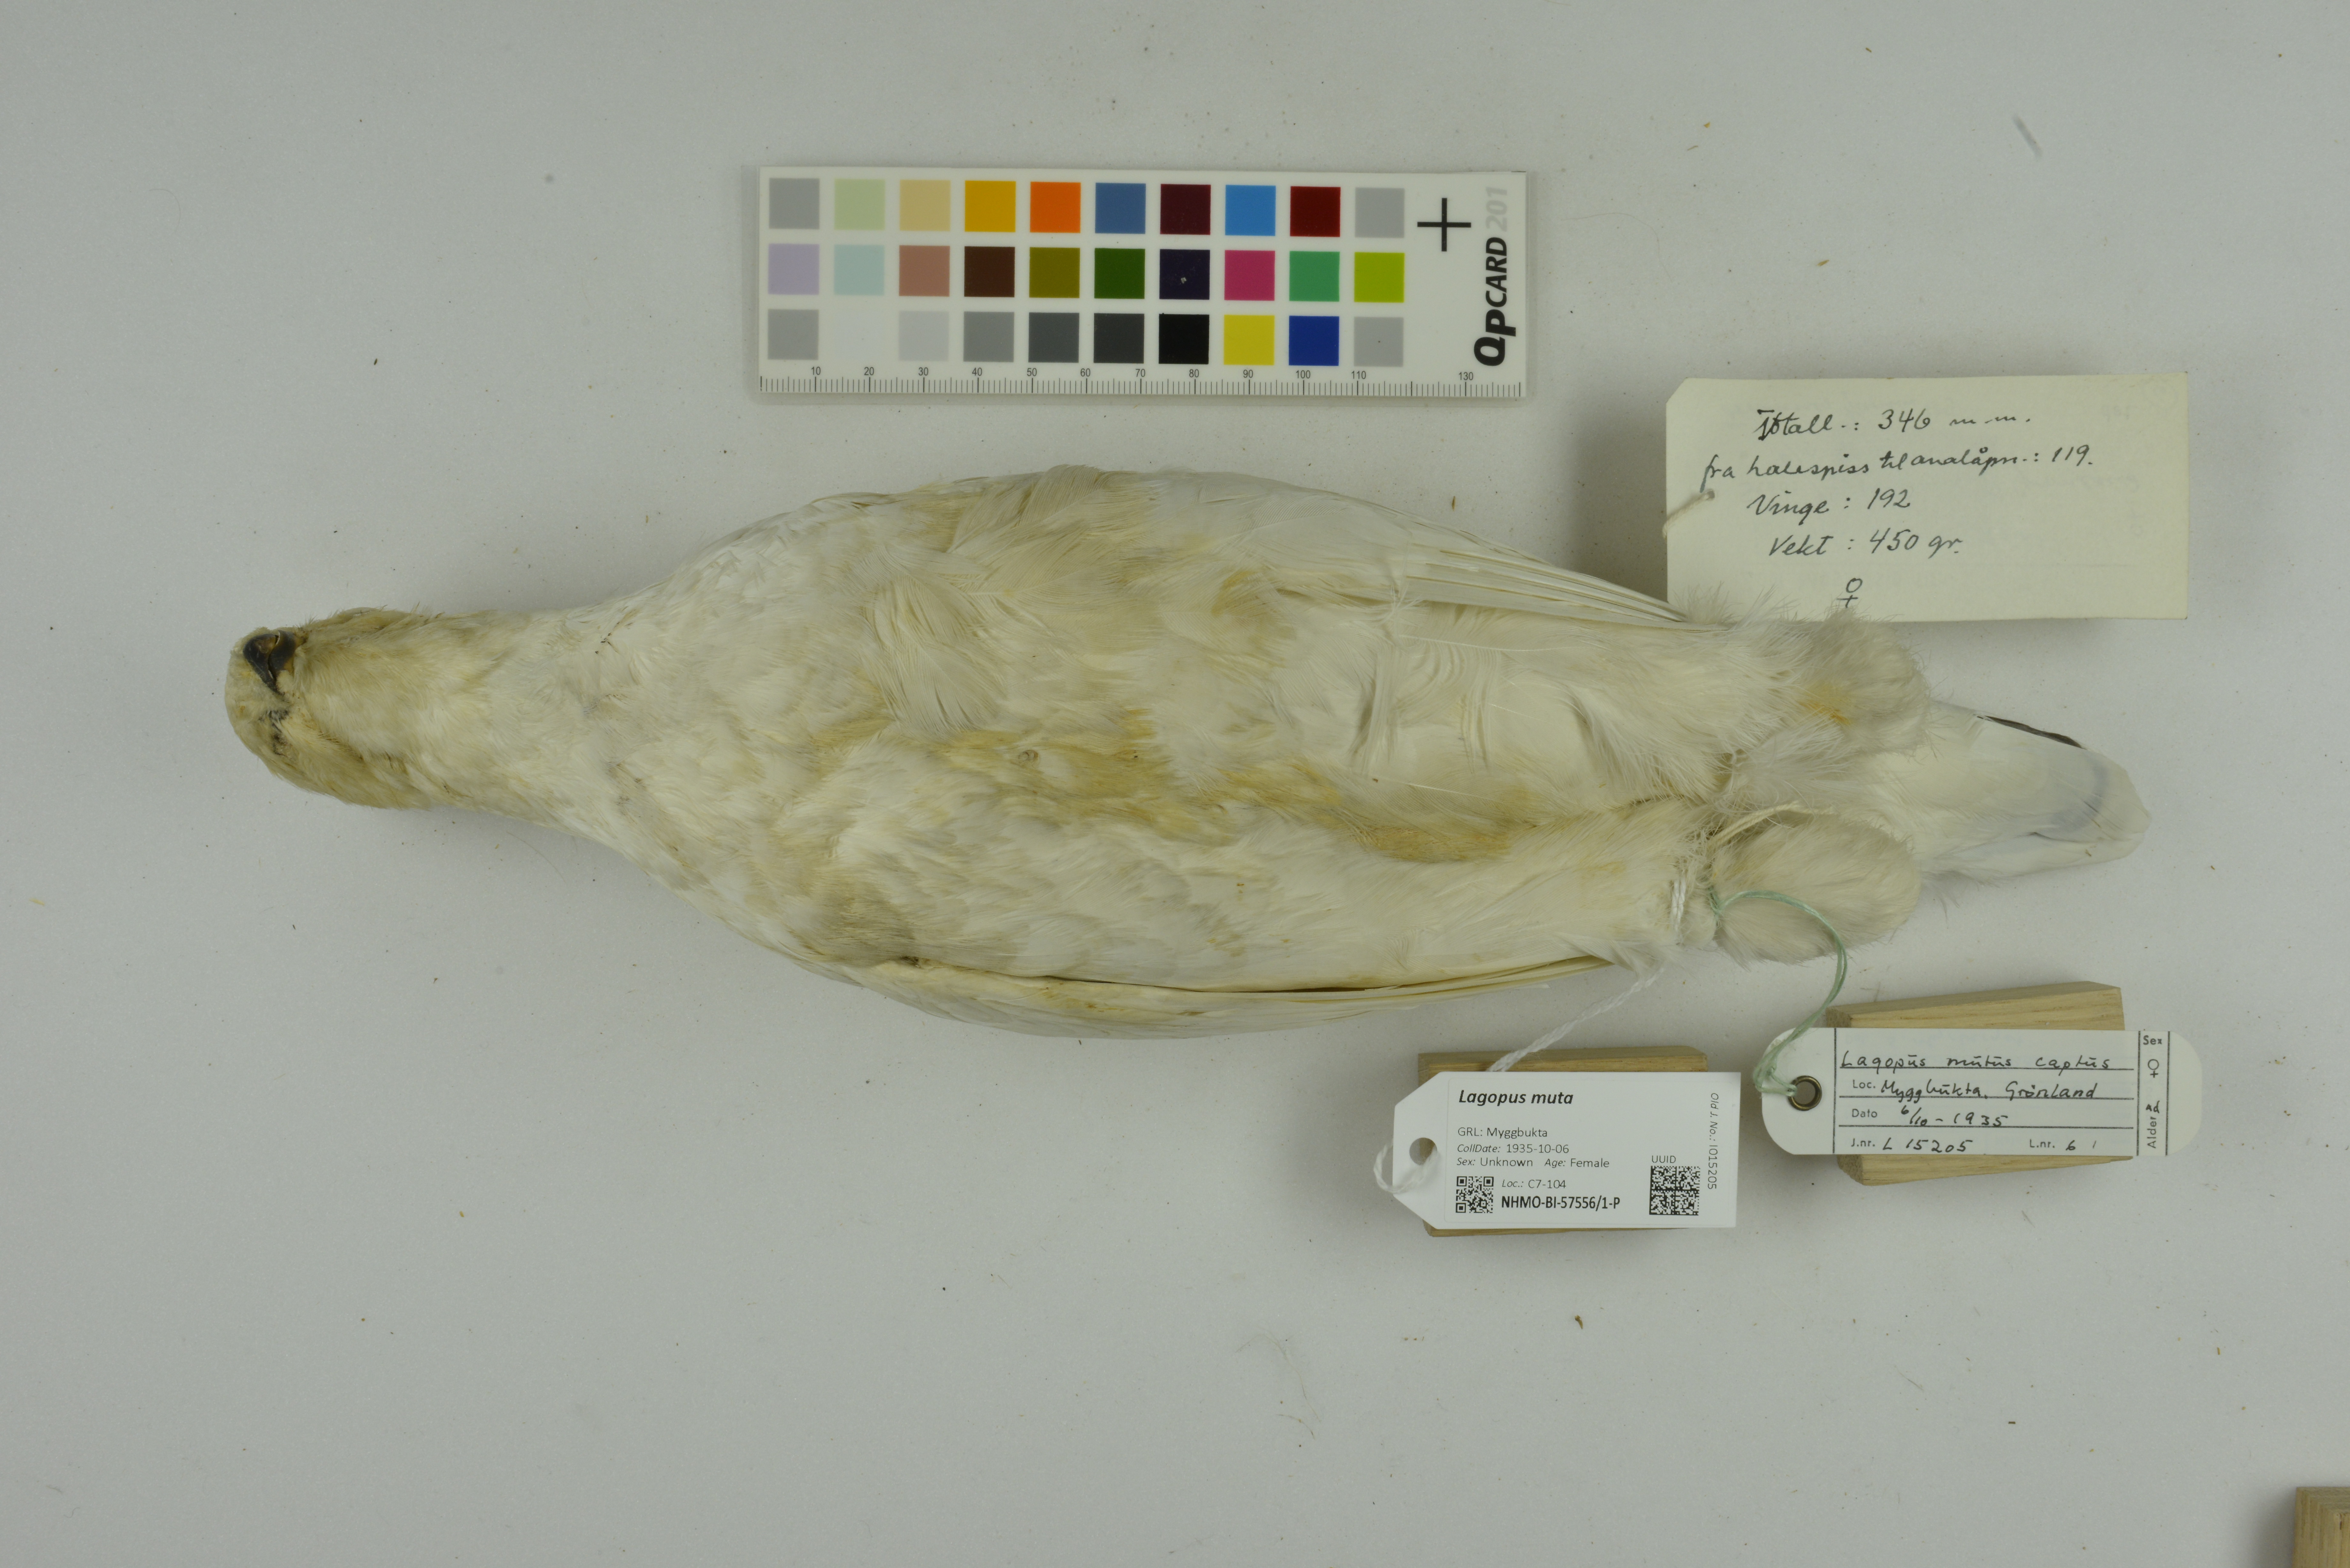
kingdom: Animalia
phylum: Chordata
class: Aves
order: Galliformes
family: Phasianidae
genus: Lagopus
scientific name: Lagopus muta
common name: Rock ptarmigan
